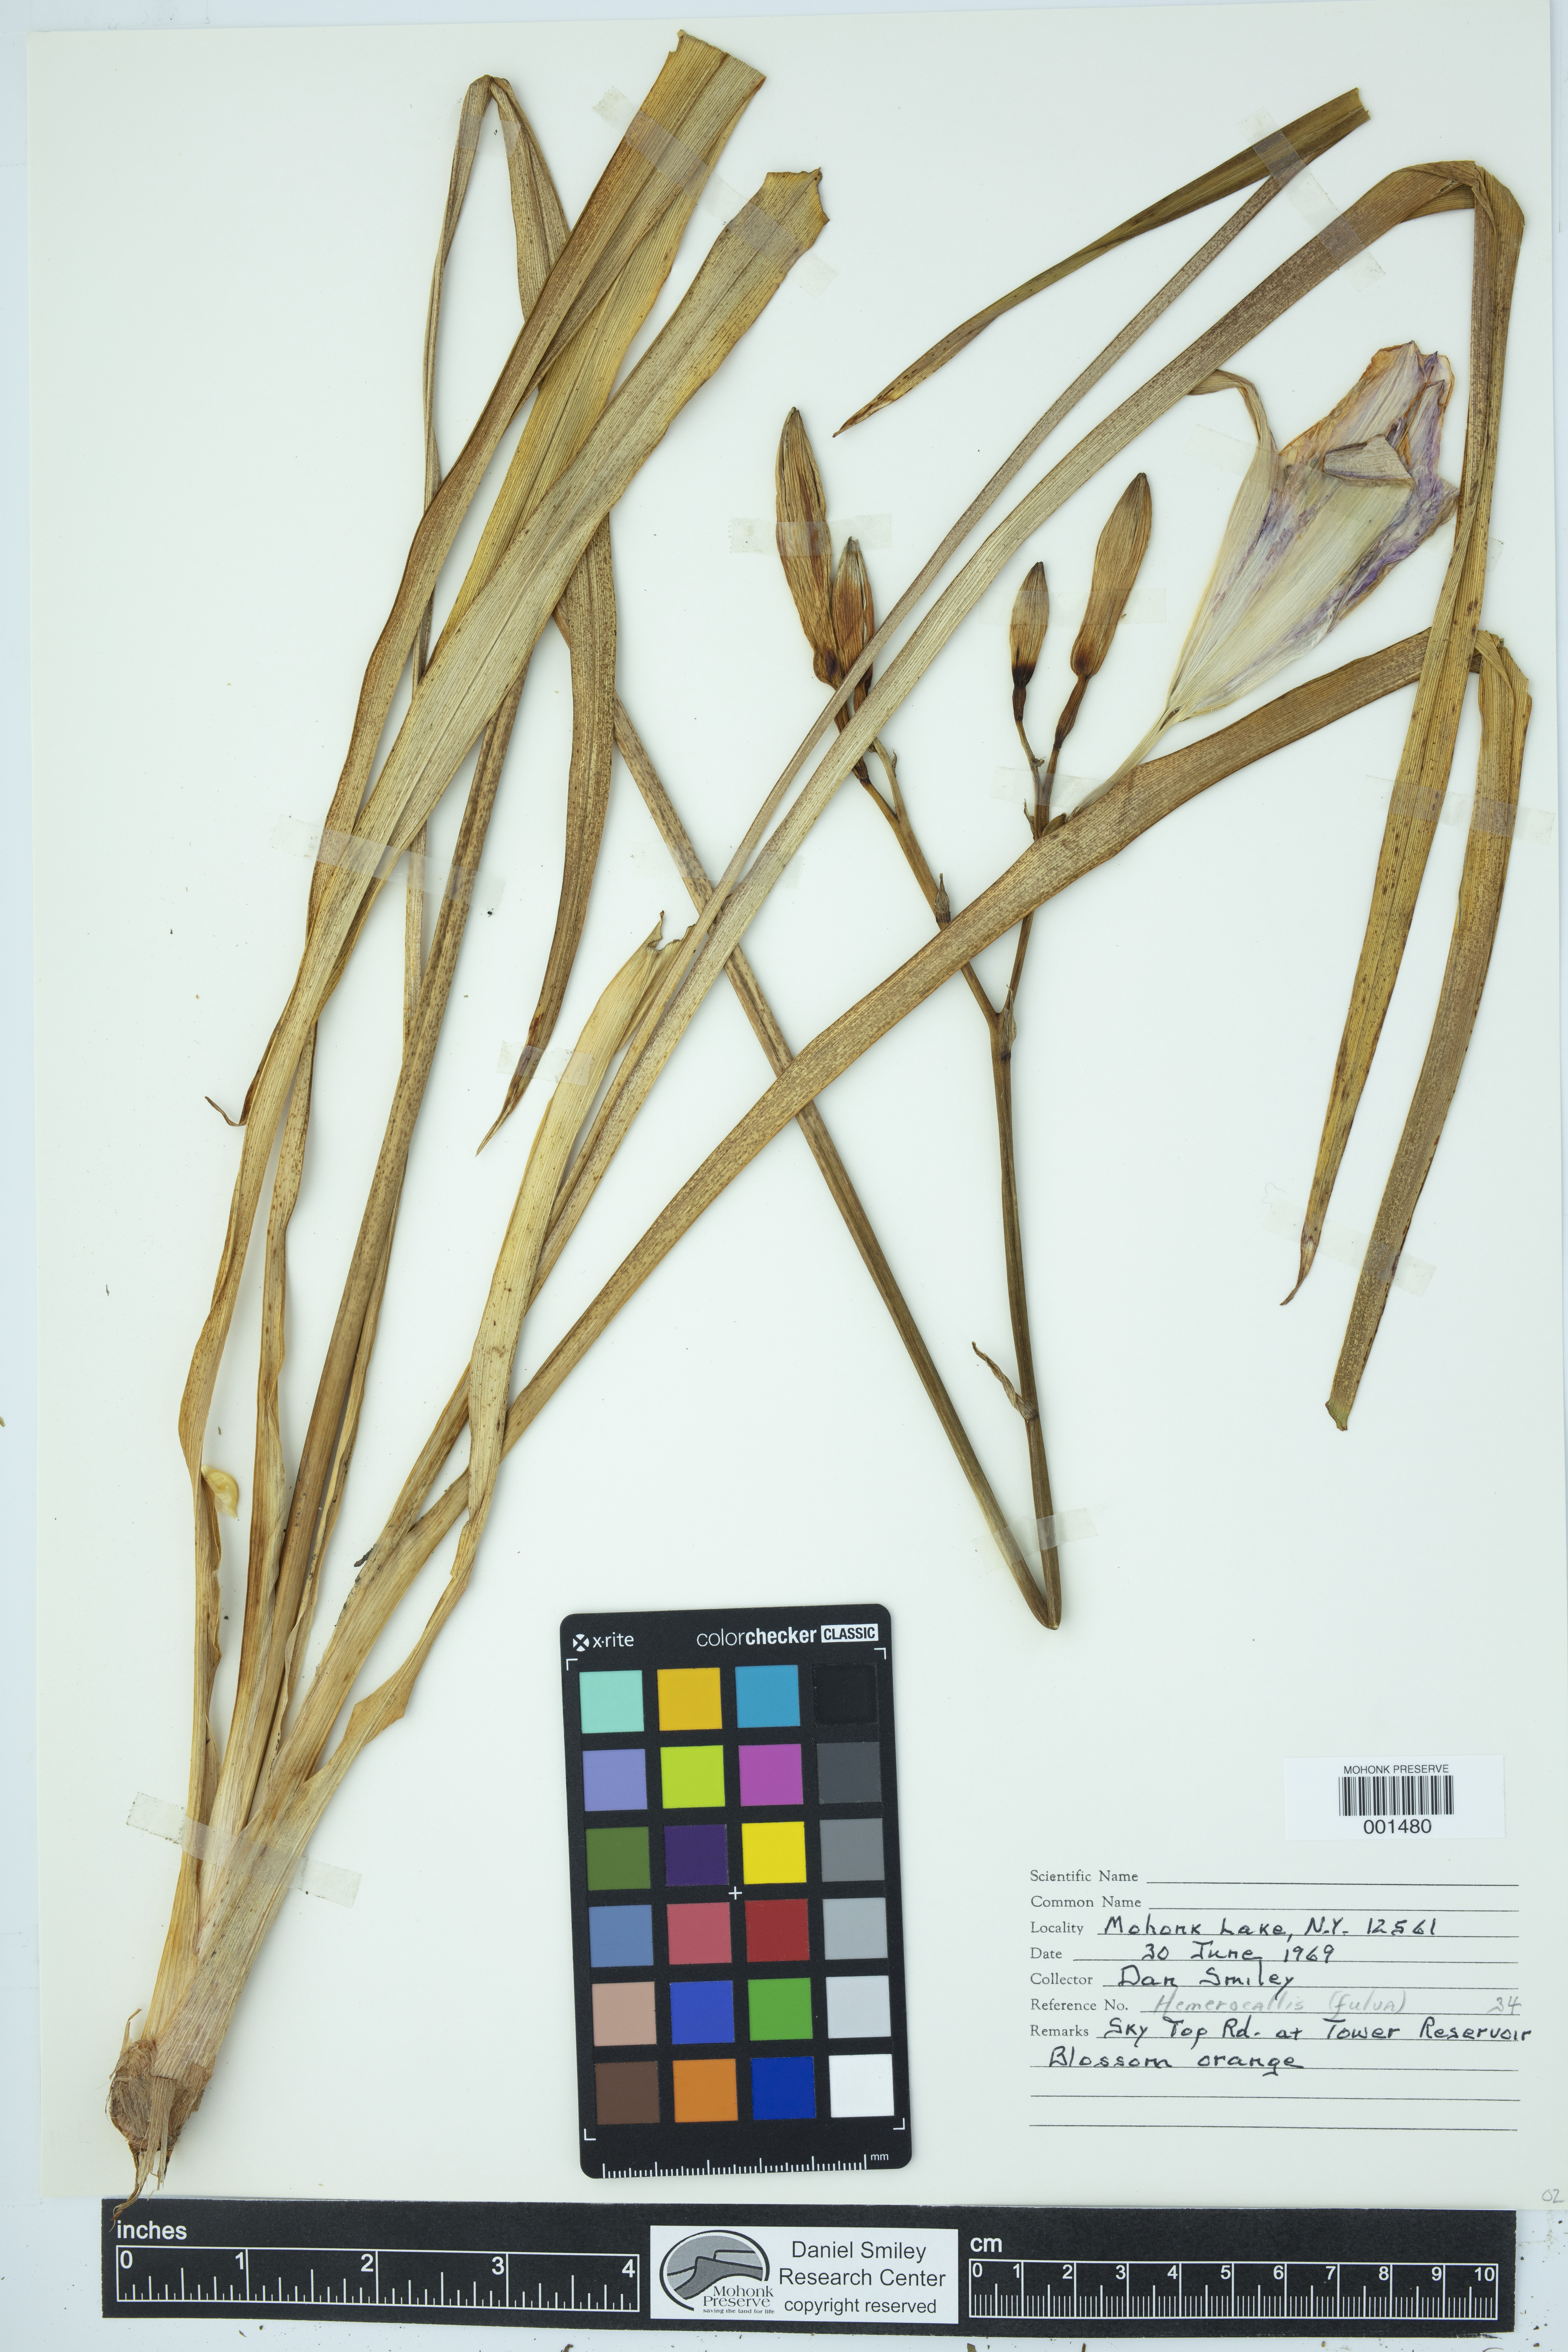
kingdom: Plantae
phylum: Tracheophyta
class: Liliopsida
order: Asparagales
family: Asphodelaceae
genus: Hemerocallis
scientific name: Hemerocallis fulva
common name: Orange day-lily
